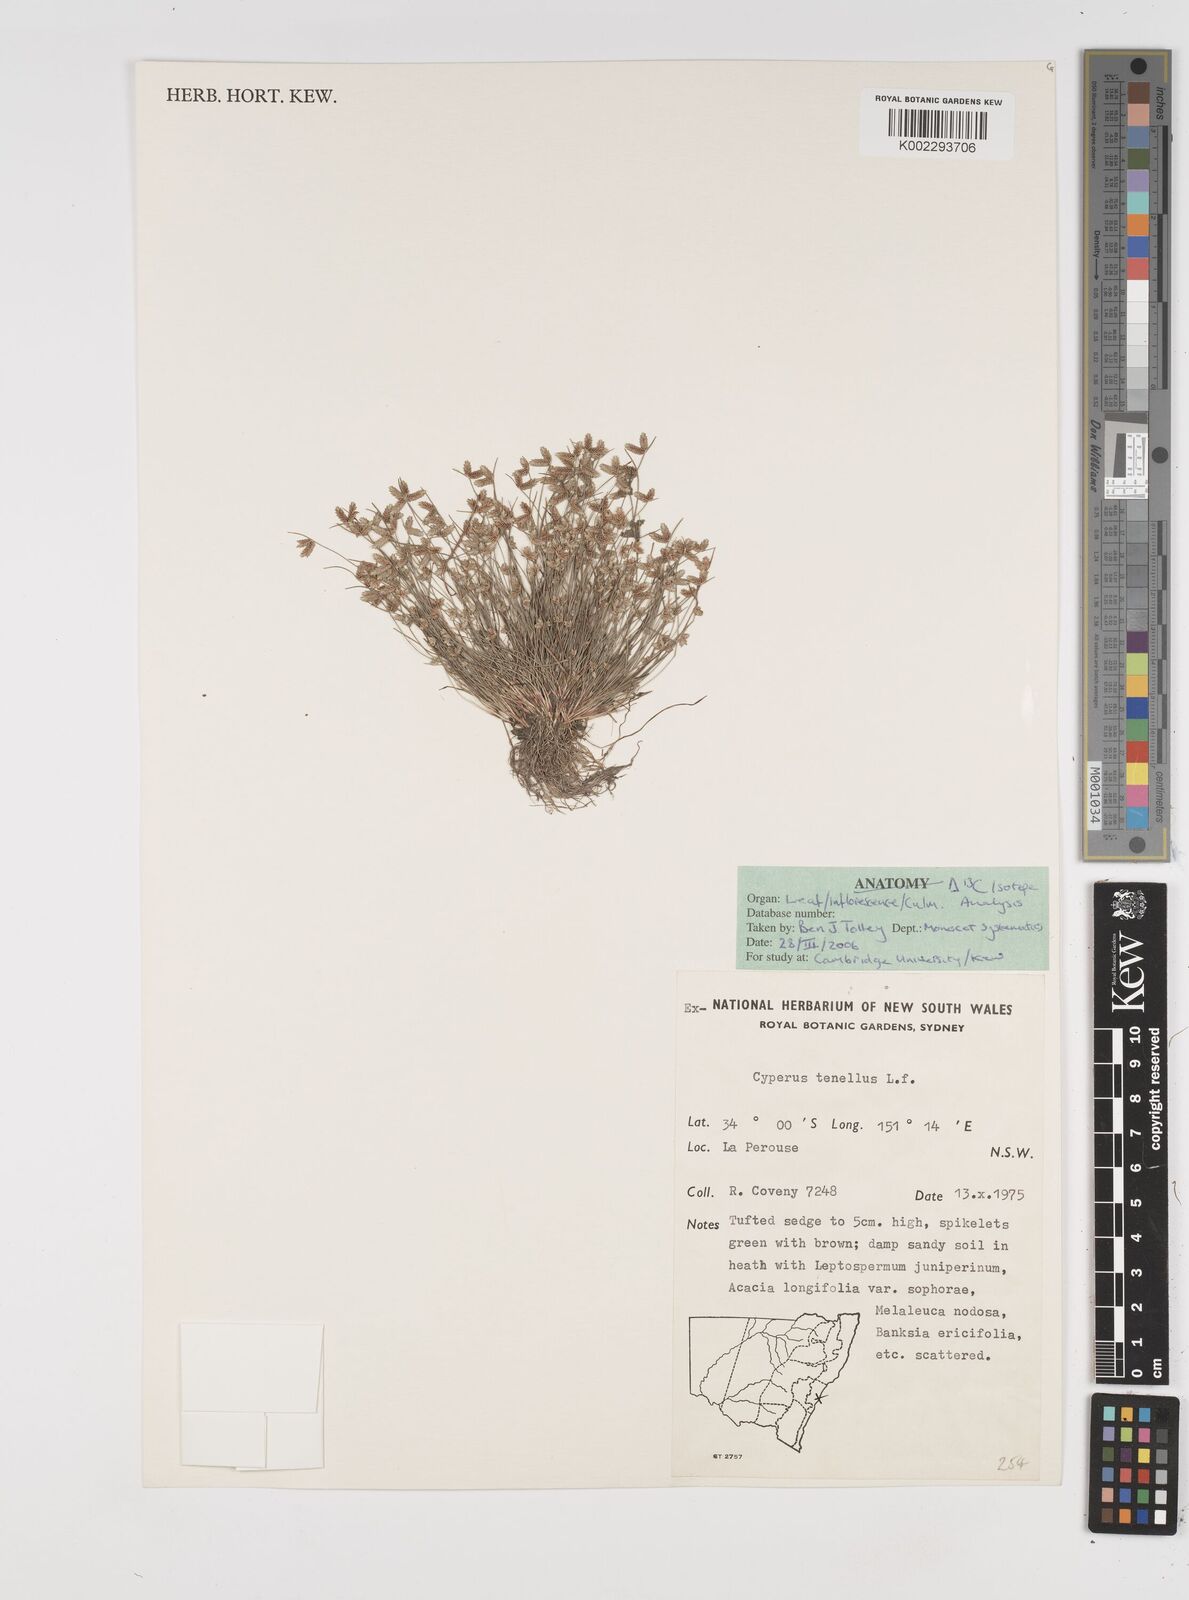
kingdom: Plantae
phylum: Tracheophyta
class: Liliopsida
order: Poales
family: Cyperaceae
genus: Isolepis
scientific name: Isolepis levynsiana
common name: Sedge
